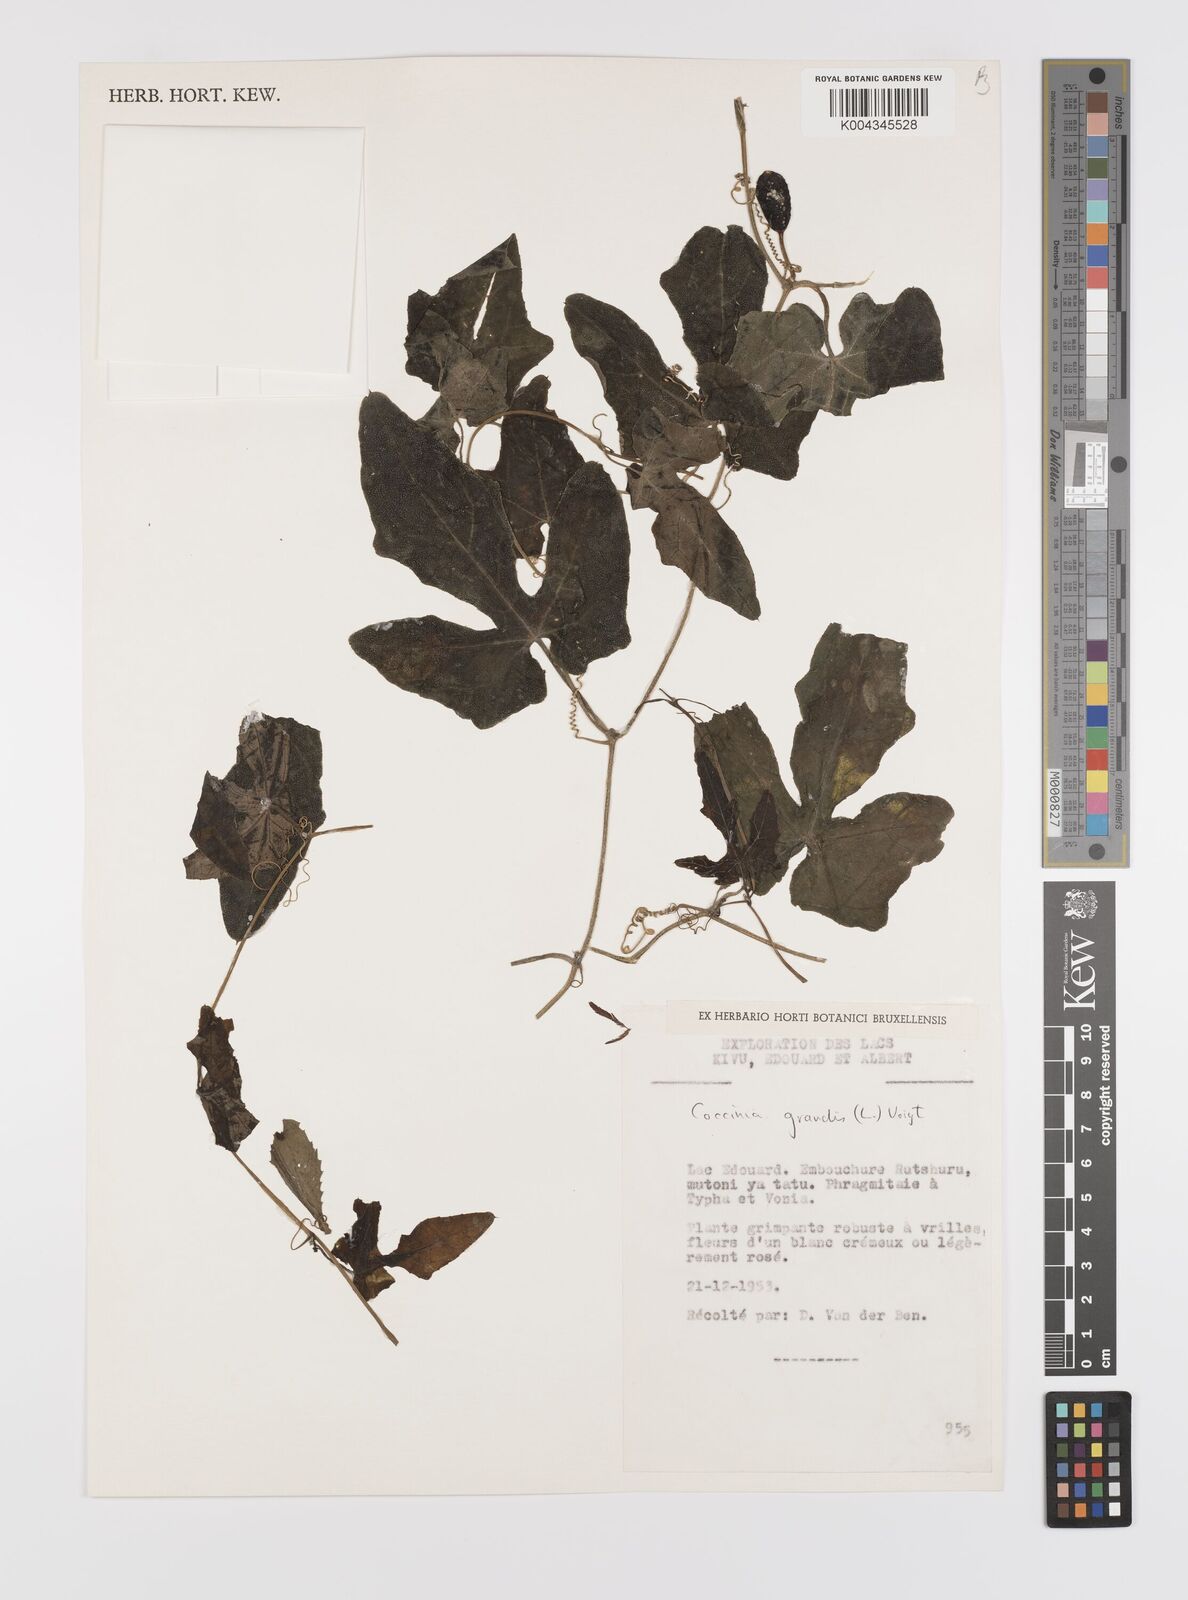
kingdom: Plantae
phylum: Tracheophyta
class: Magnoliopsida
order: Cucurbitales
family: Cucurbitaceae
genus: Coccinia
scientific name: Coccinia grandis
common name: Ivy gourd
